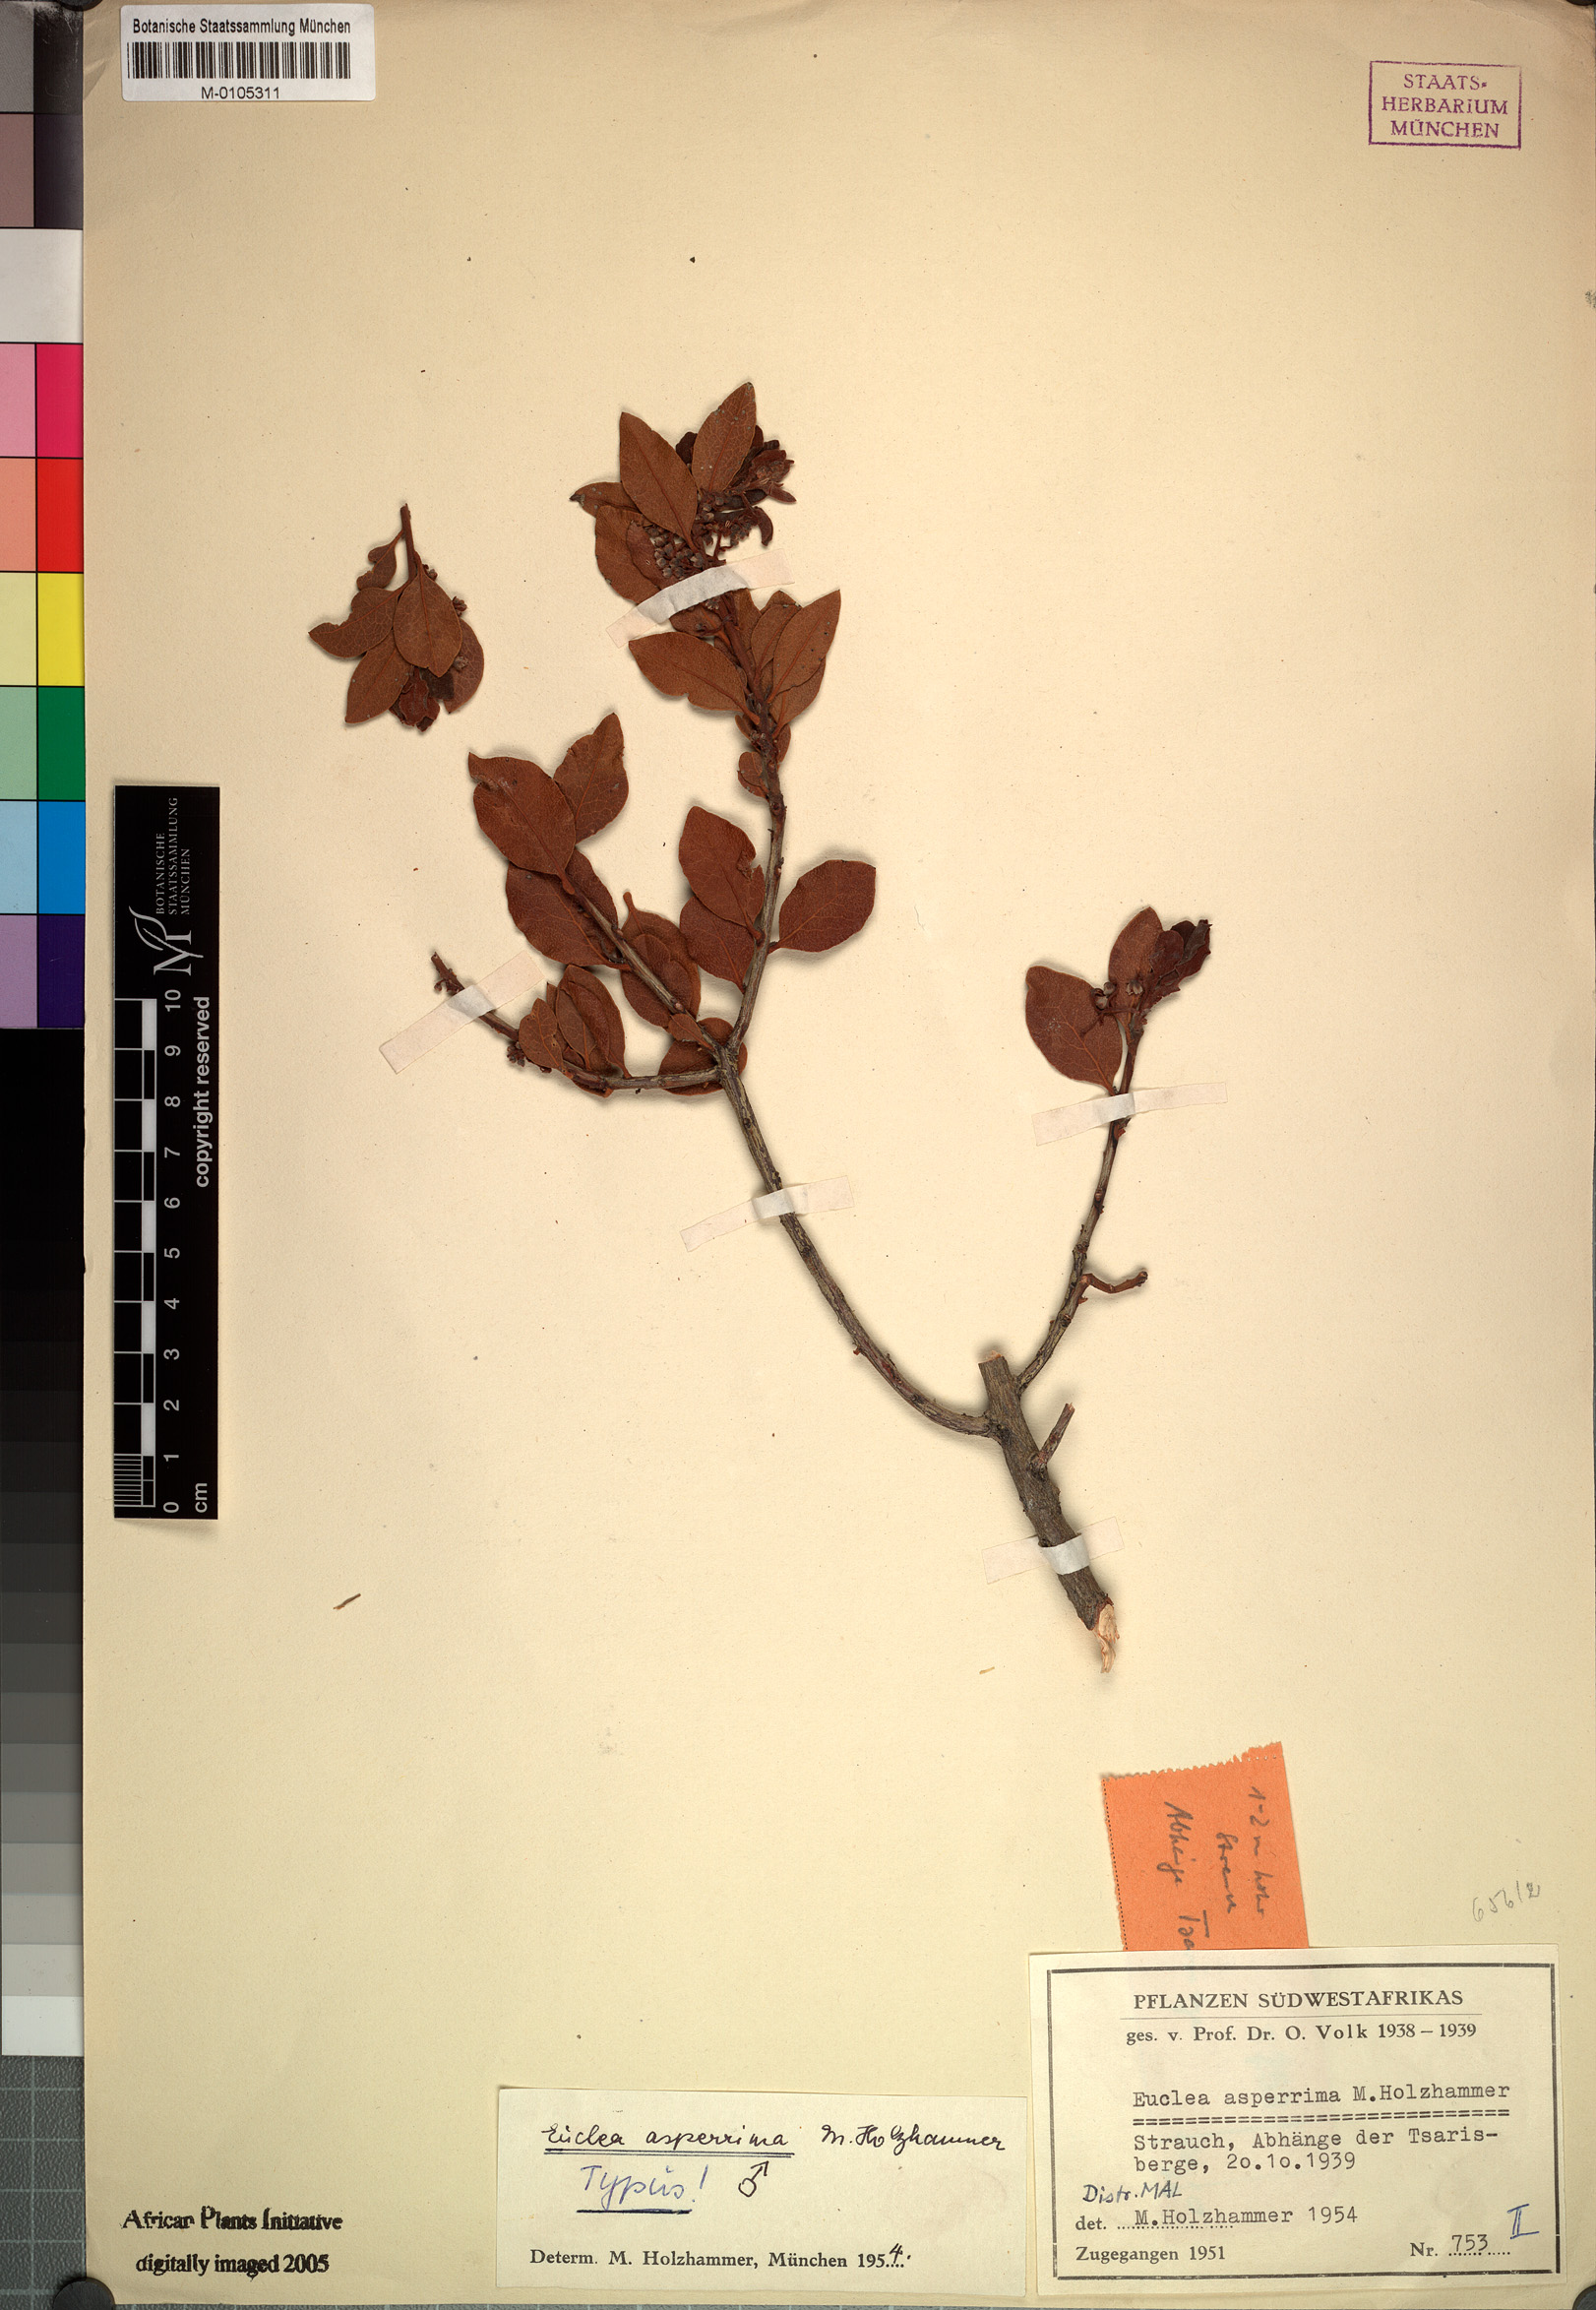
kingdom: Plantae
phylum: Tracheophyta
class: Magnoliopsida
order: Ericales
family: Ebenaceae
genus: Euclea
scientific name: Euclea asperrima
